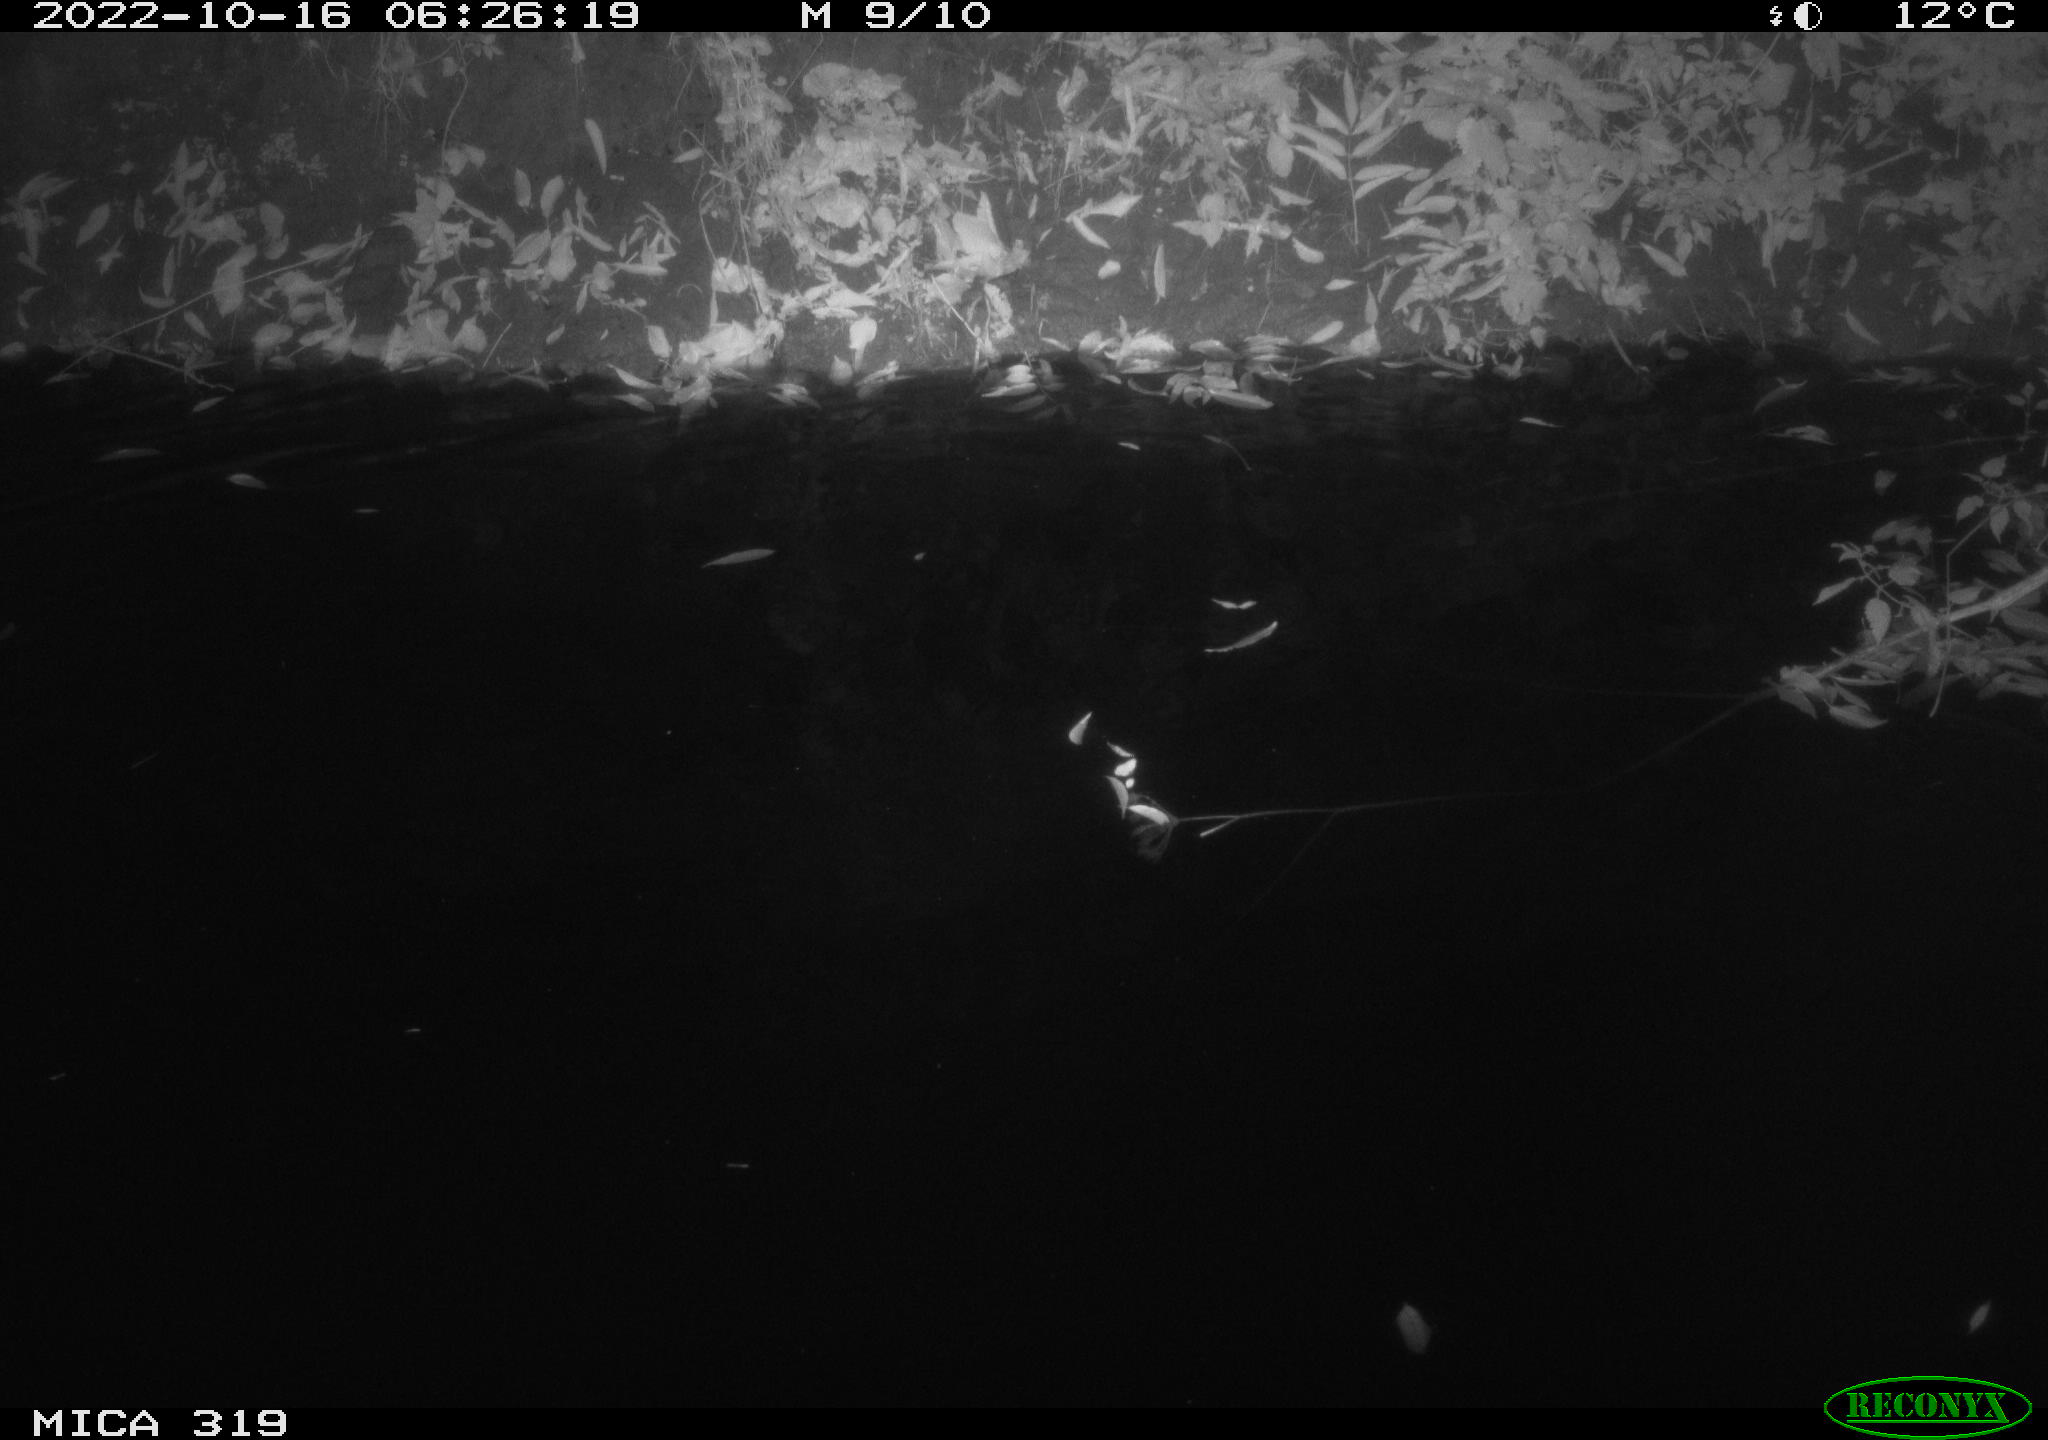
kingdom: Animalia
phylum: Chordata
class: Aves
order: Anseriformes
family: Anatidae
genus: Anas
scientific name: Anas
